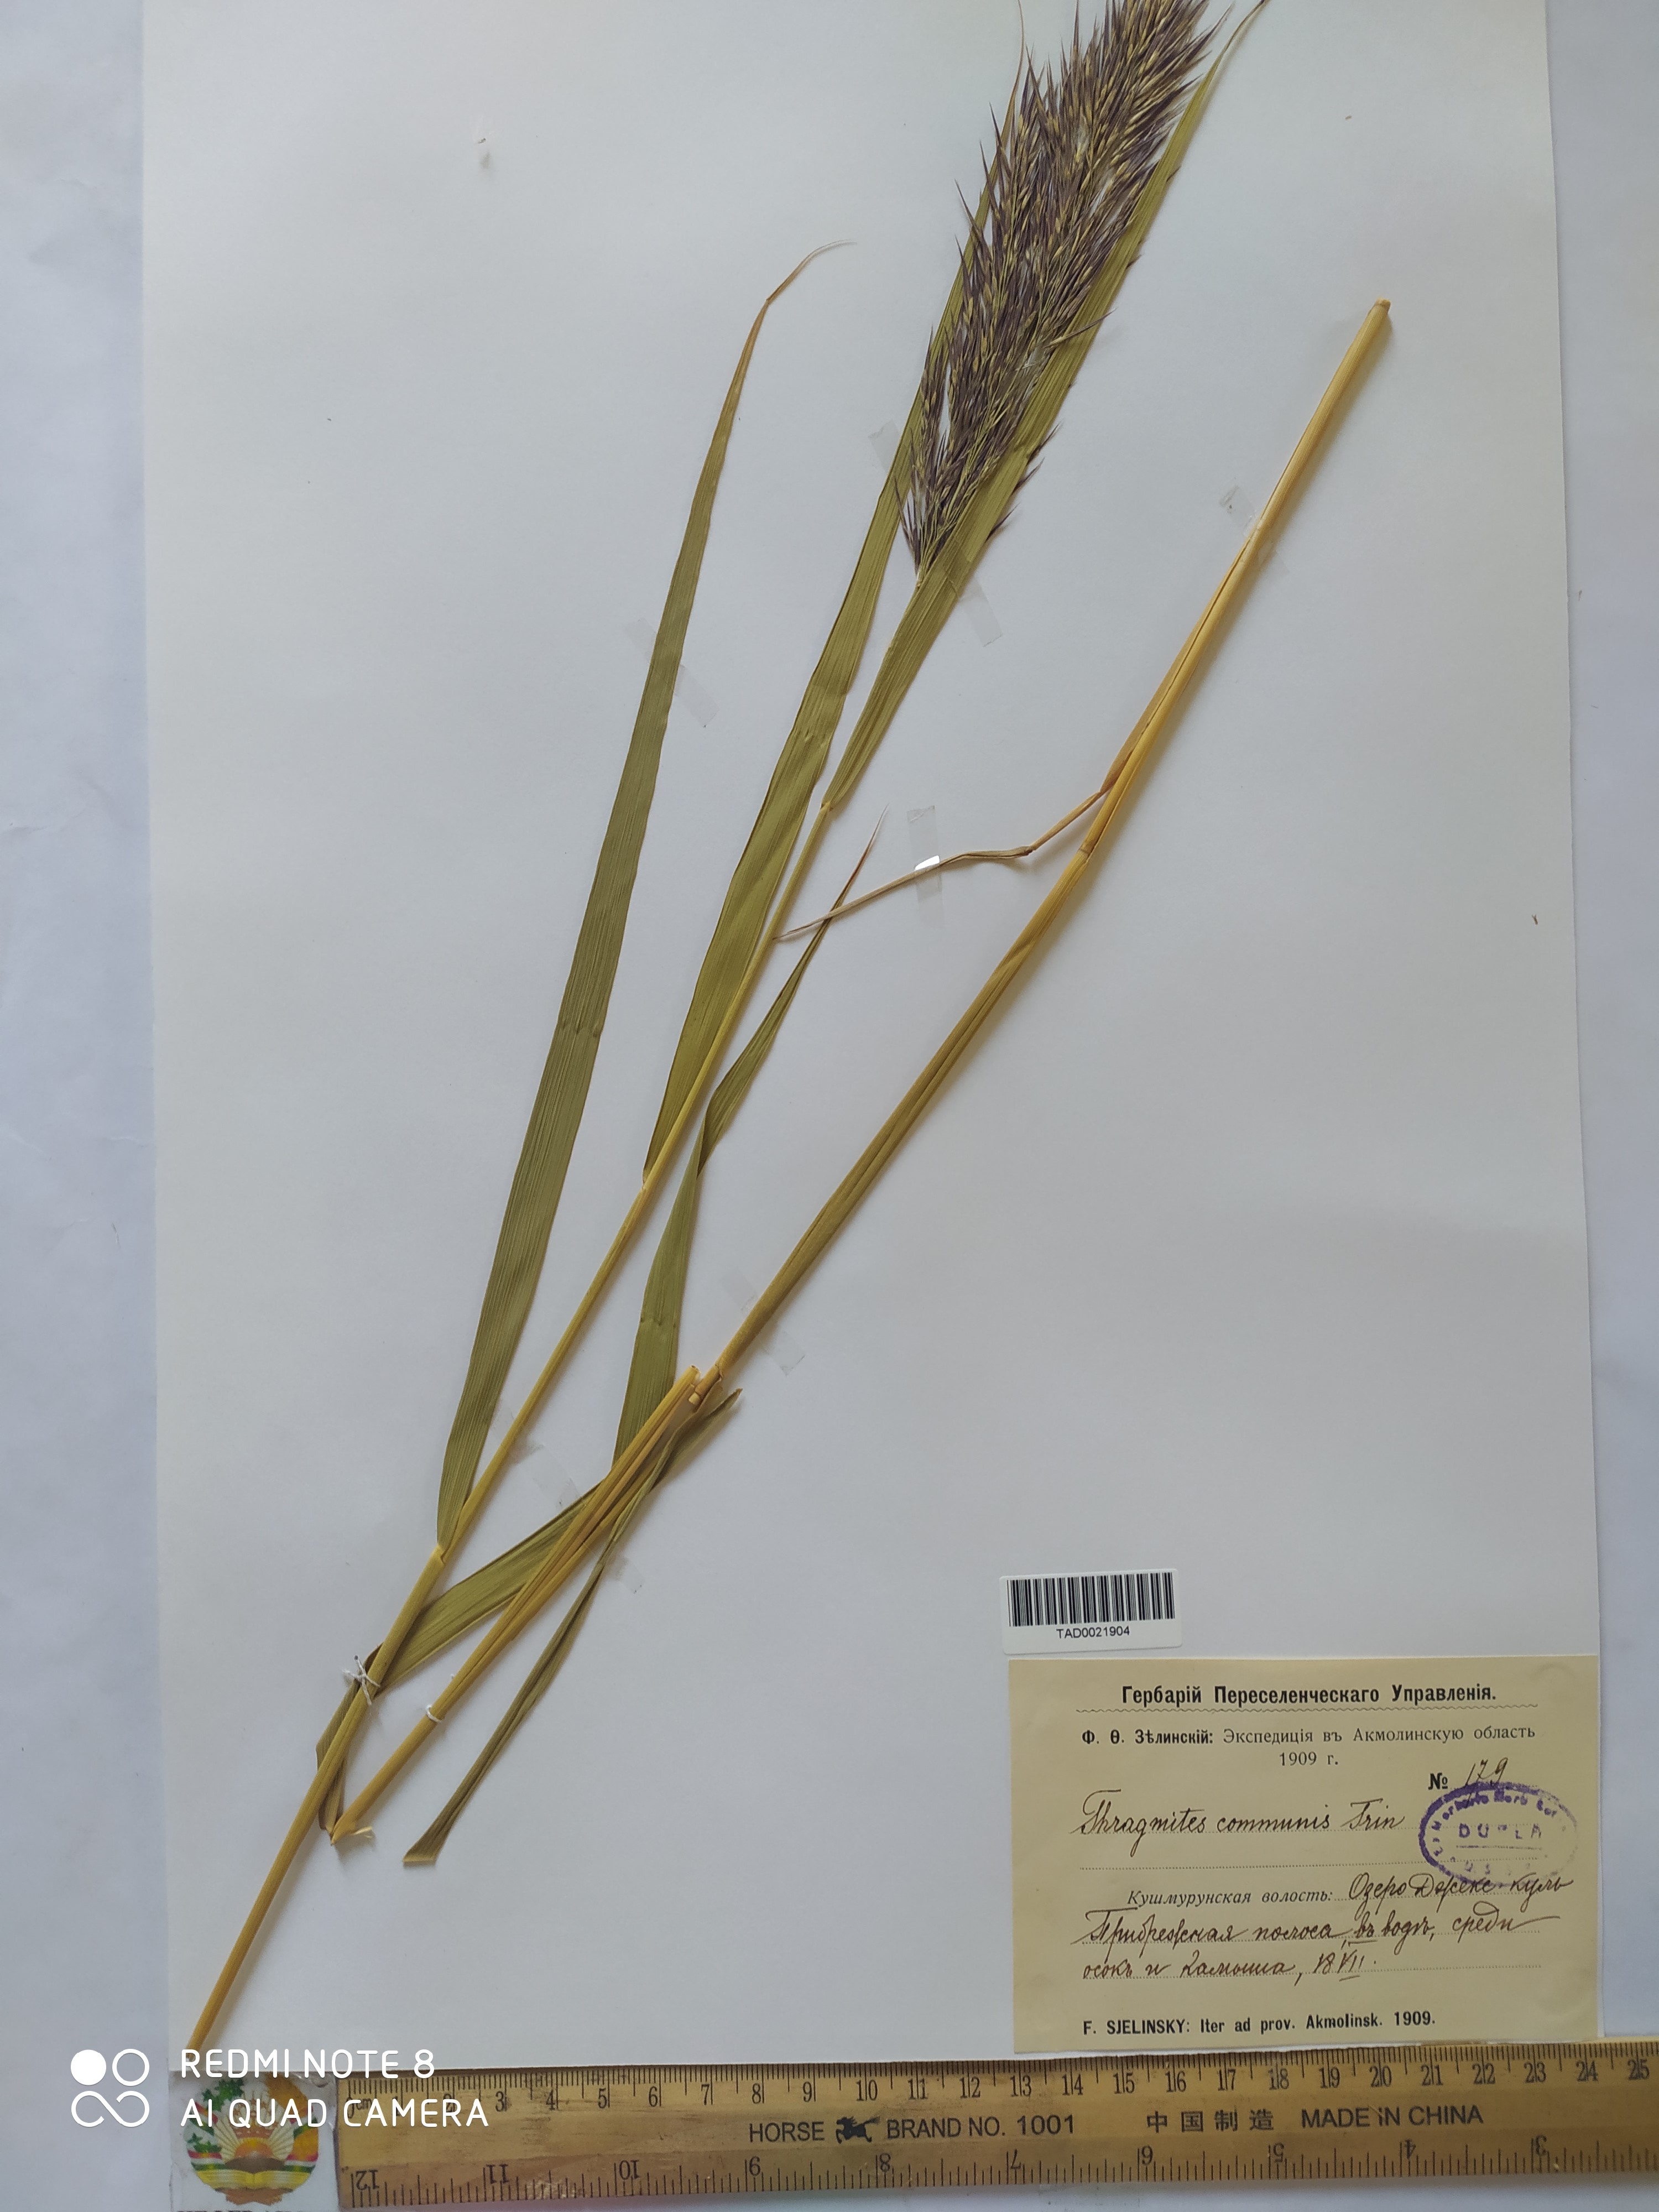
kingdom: Plantae
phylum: Tracheophyta
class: Liliopsida
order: Poales
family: Poaceae
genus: Phragmites
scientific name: Phragmites australis
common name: Common reed
